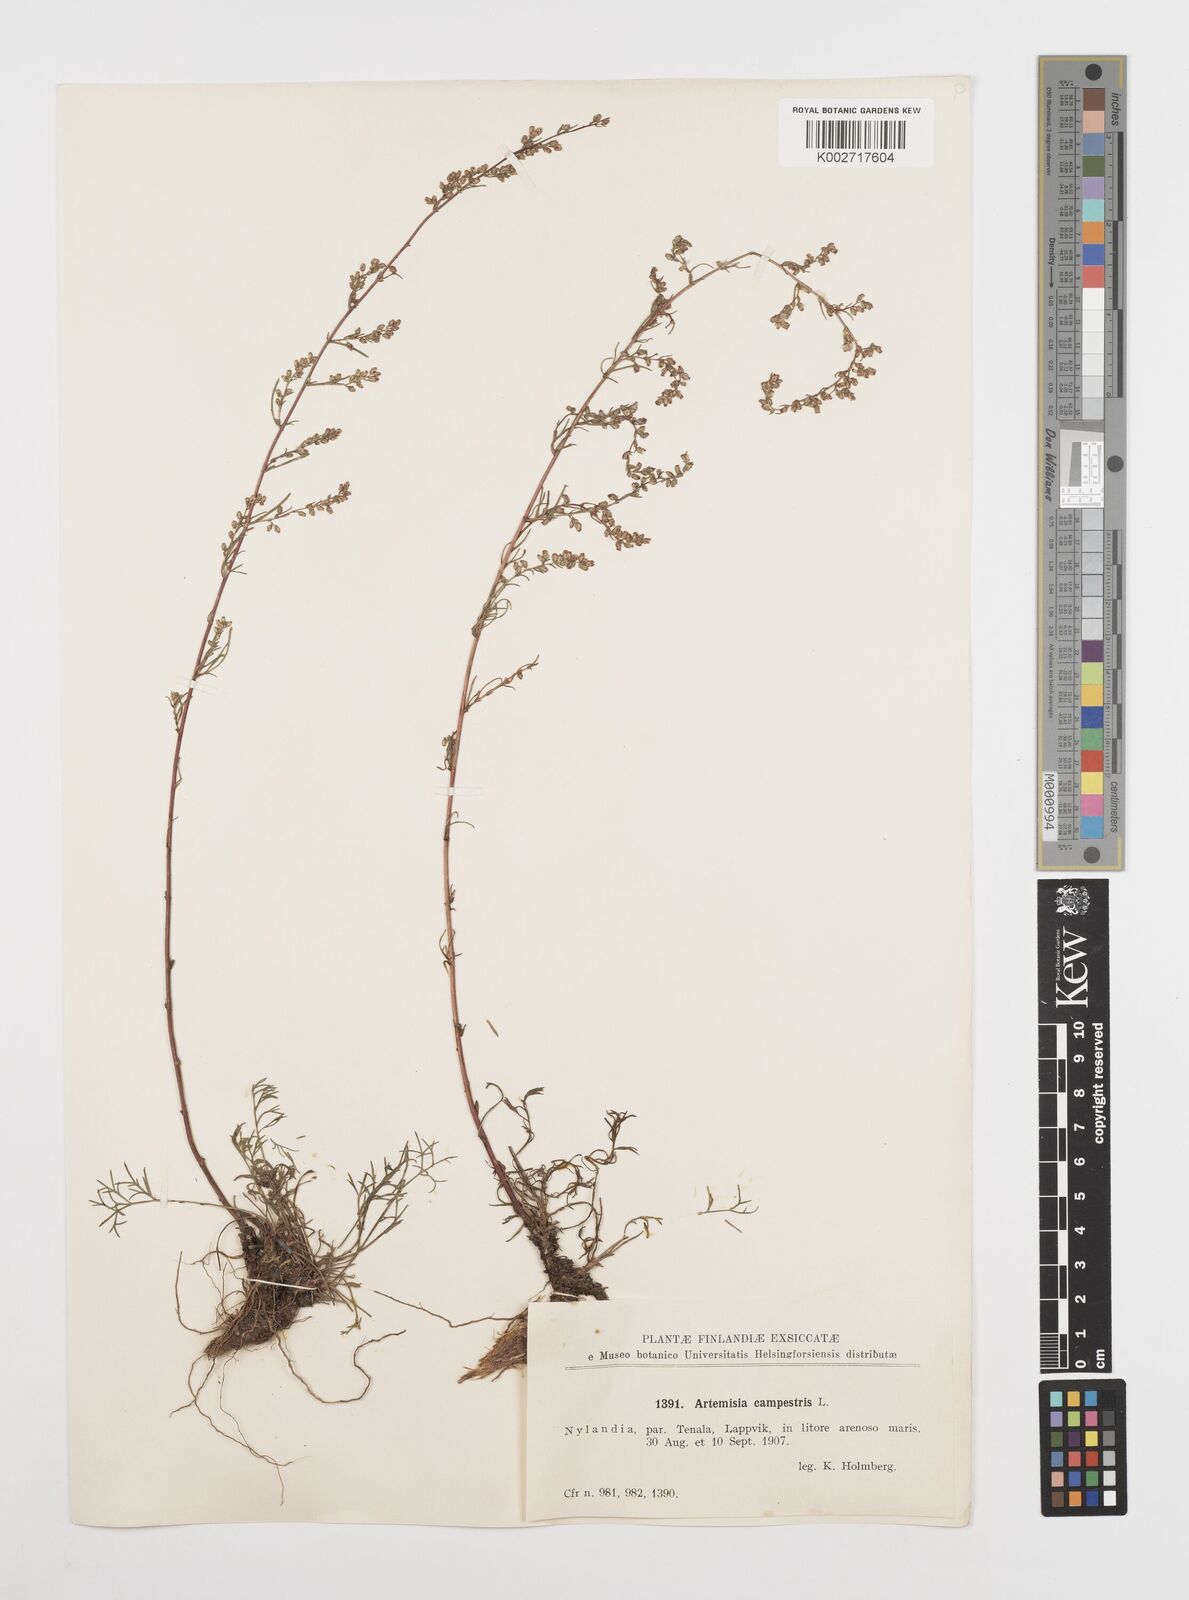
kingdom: Plantae
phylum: Tracheophyta
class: Magnoliopsida
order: Asterales
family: Asteraceae
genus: Artemisia
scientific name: Artemisia campestris
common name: Field wormwood
